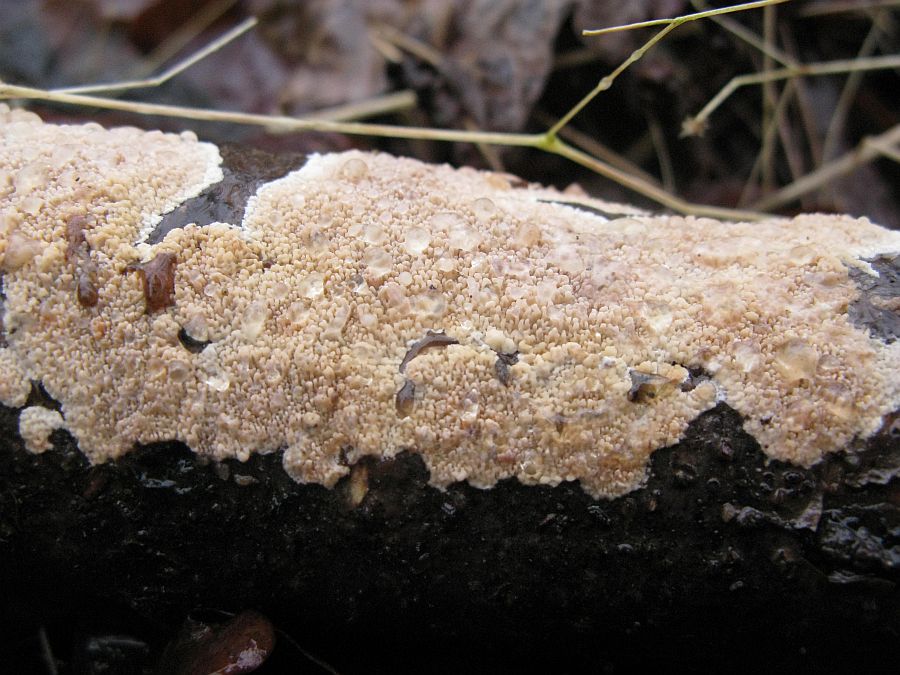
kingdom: Fungi
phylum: Basidiomycota
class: Agaricomycetes
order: Polyporales
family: Meruliaceae
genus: Phlebia
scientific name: Phlebia rufa
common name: ege-åresvamp
